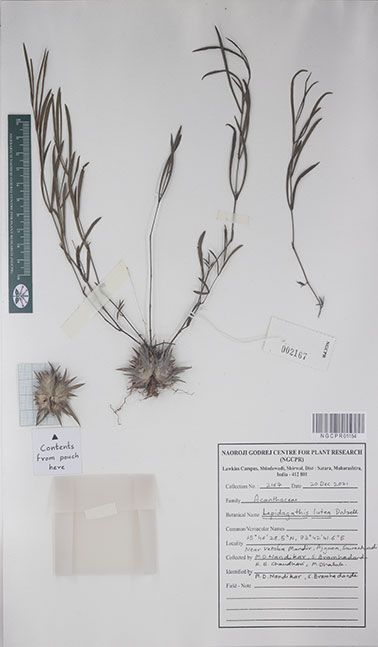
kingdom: Plantae
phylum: Tracheophyta
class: Magnoliopsida
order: Lamiales
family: Acanthaceae
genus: Lepidagathis
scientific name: Lepidagathis lutea
